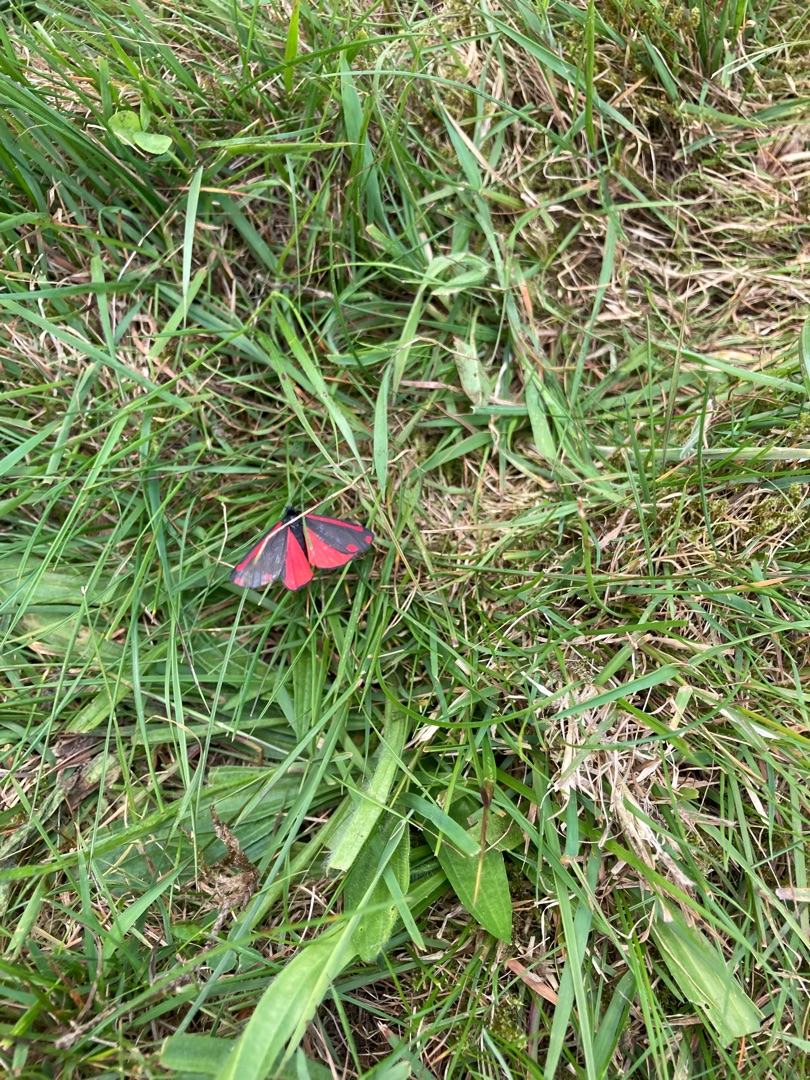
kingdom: Animalia
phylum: Arthropoda
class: Insecta
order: Lepidoptera
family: Erebidae
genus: Tyria
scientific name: Tyria jacobaeae
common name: Blodplet
